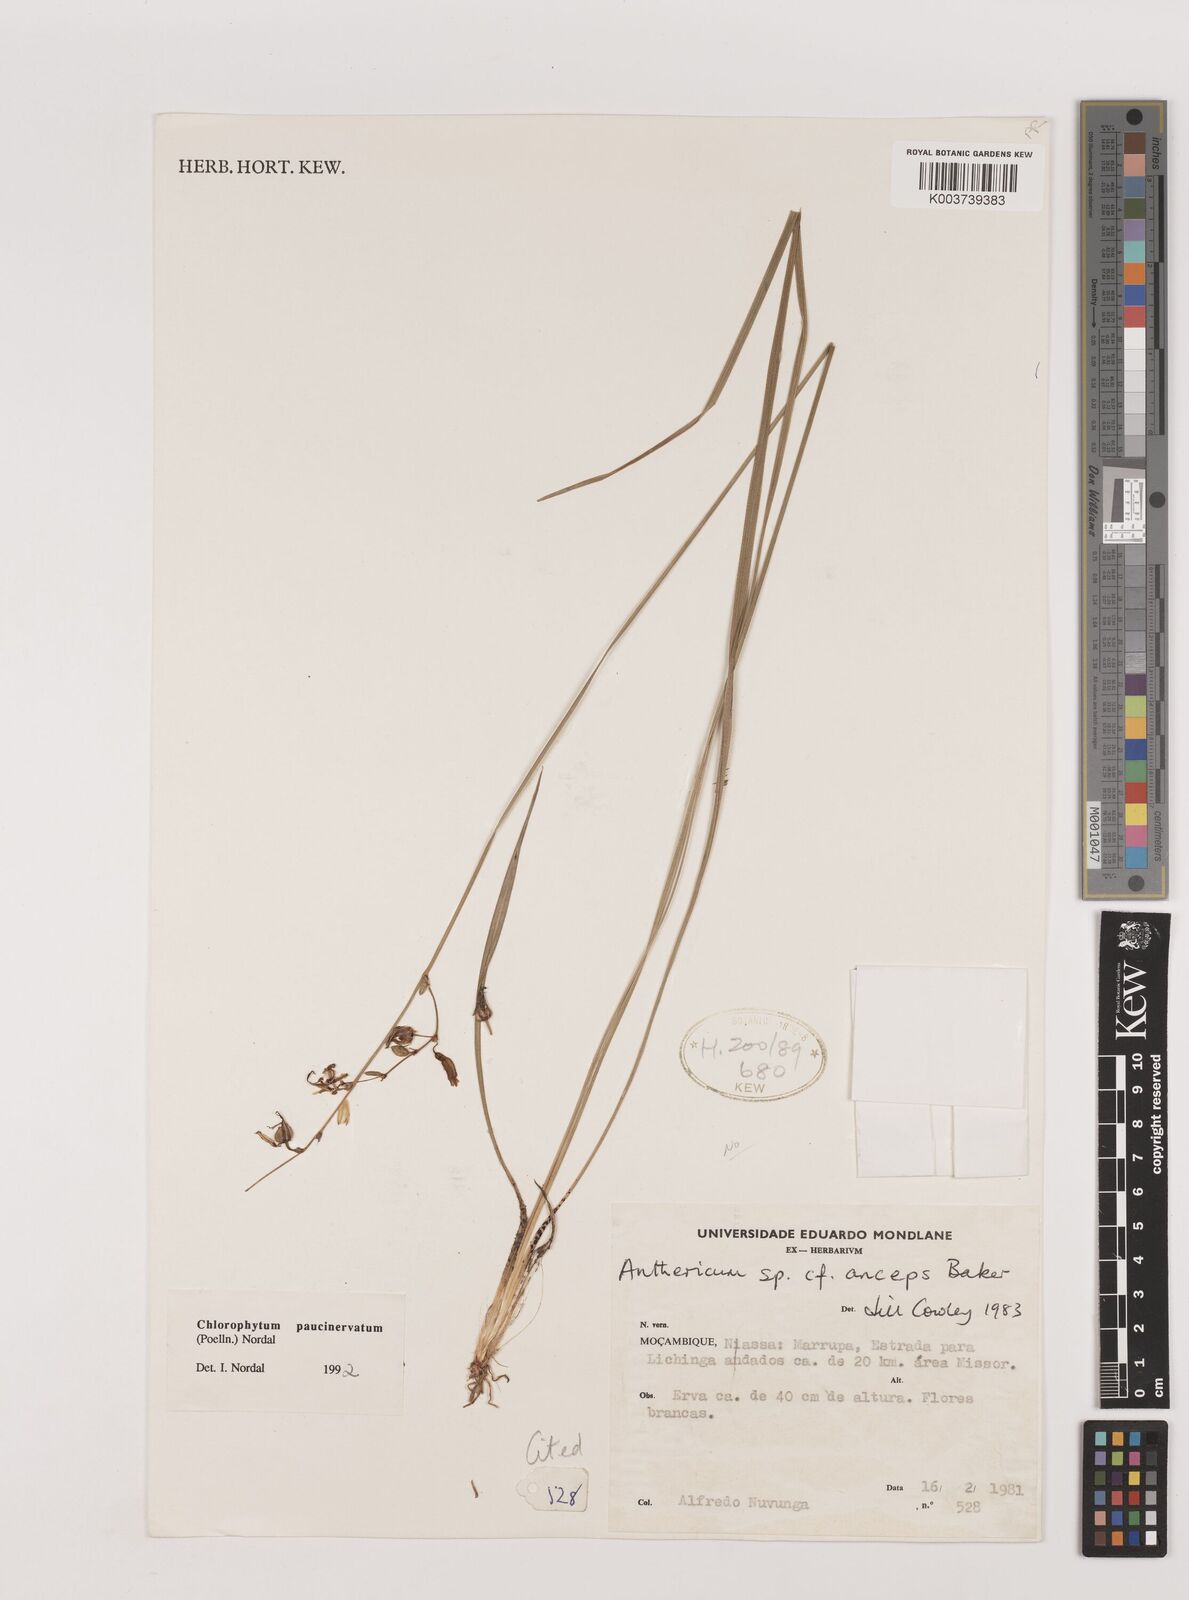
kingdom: Plantae
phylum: Tracheophyta
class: Liliopsida
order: Asparagales
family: Asparagaceae
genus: Chlorophytum
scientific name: Chlorophytum paucinervatum
